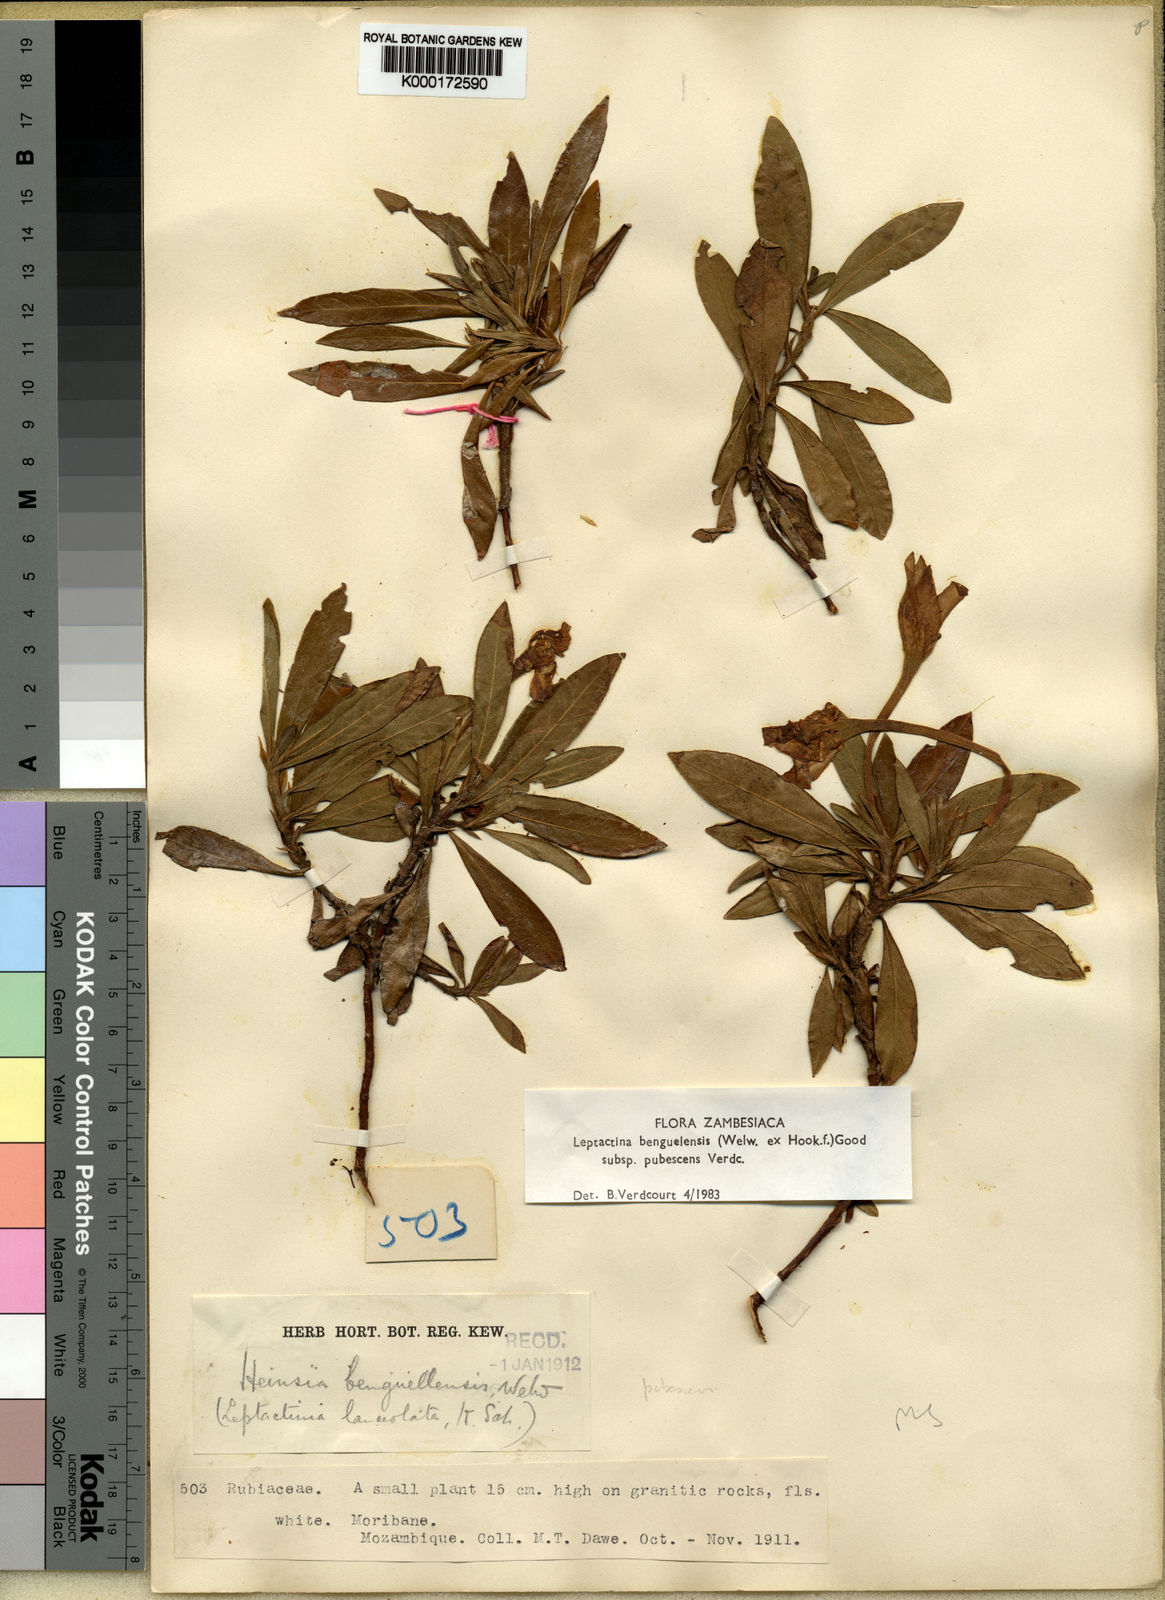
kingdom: Plantae
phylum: Tracheophyta
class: Magnoliopsida
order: Gentianales
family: Rubiaceae
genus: Leptactina
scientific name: Leptactina benguelensis
